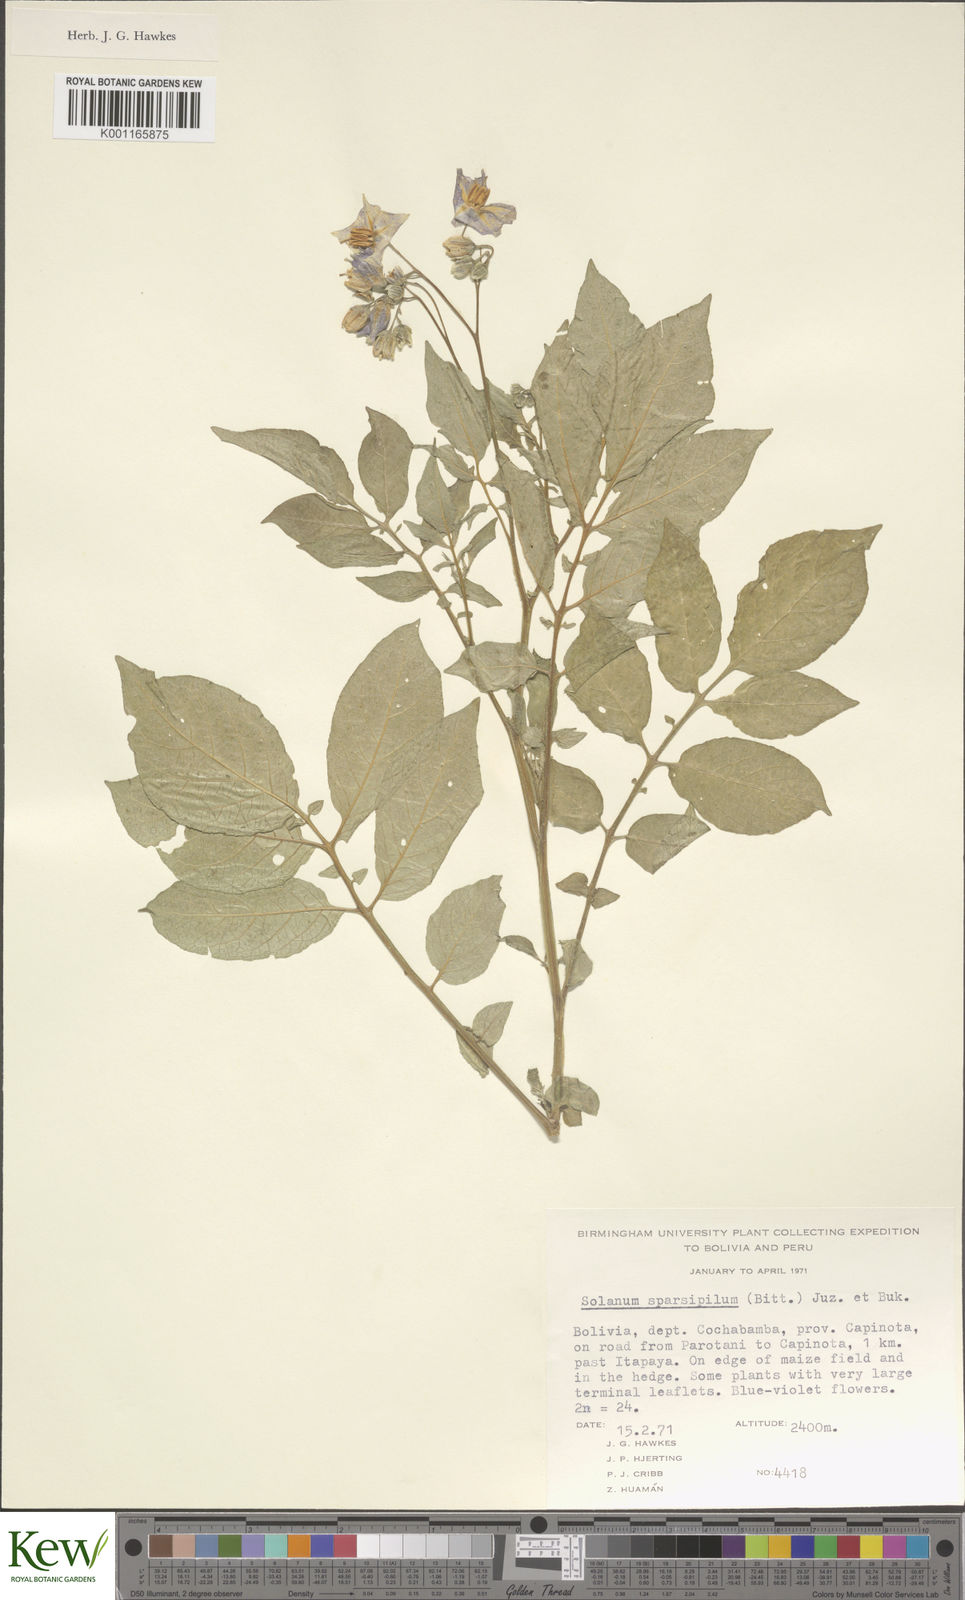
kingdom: Plantae
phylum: Tracheophyta
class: Magnoliopsida
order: Solanales
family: Solanaceae
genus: Solanum
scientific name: Solanum brevicaule
